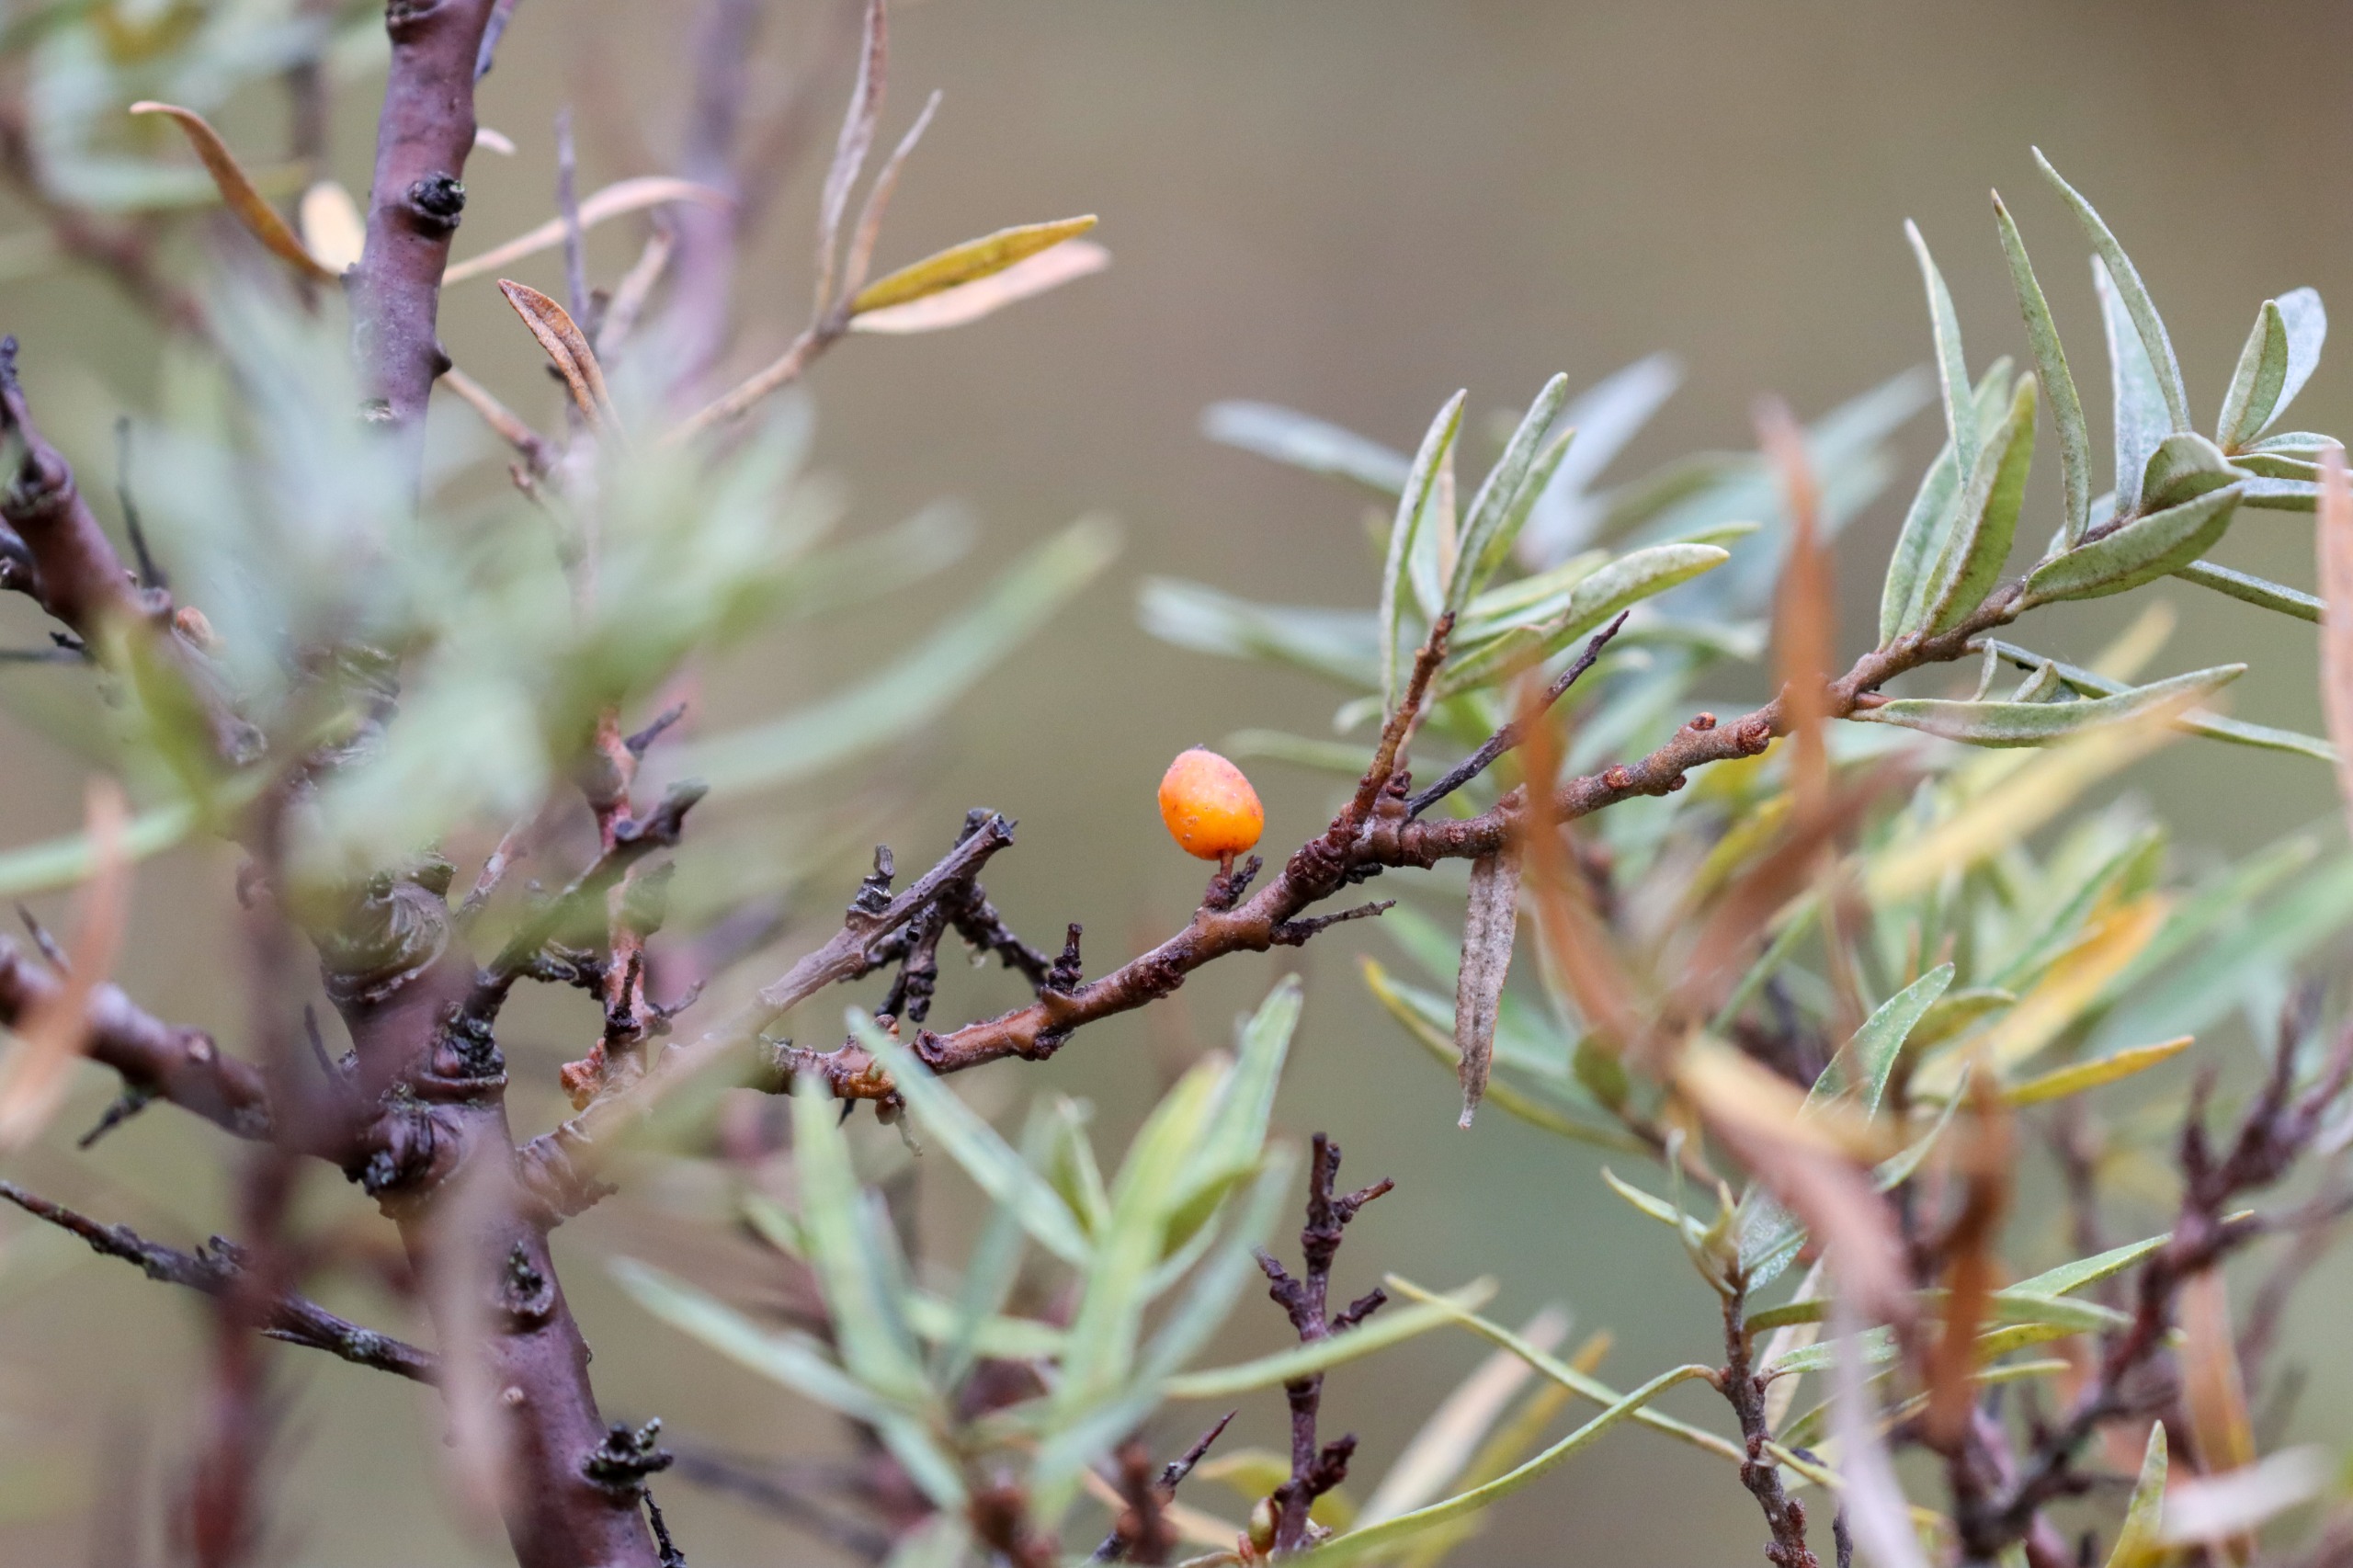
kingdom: Plantae
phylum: Tracheophyta
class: Magnoliopsida
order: Rosales
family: Elaeagnaceae
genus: Hippophae
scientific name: Hippophae rhamnoides
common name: Havtorn
